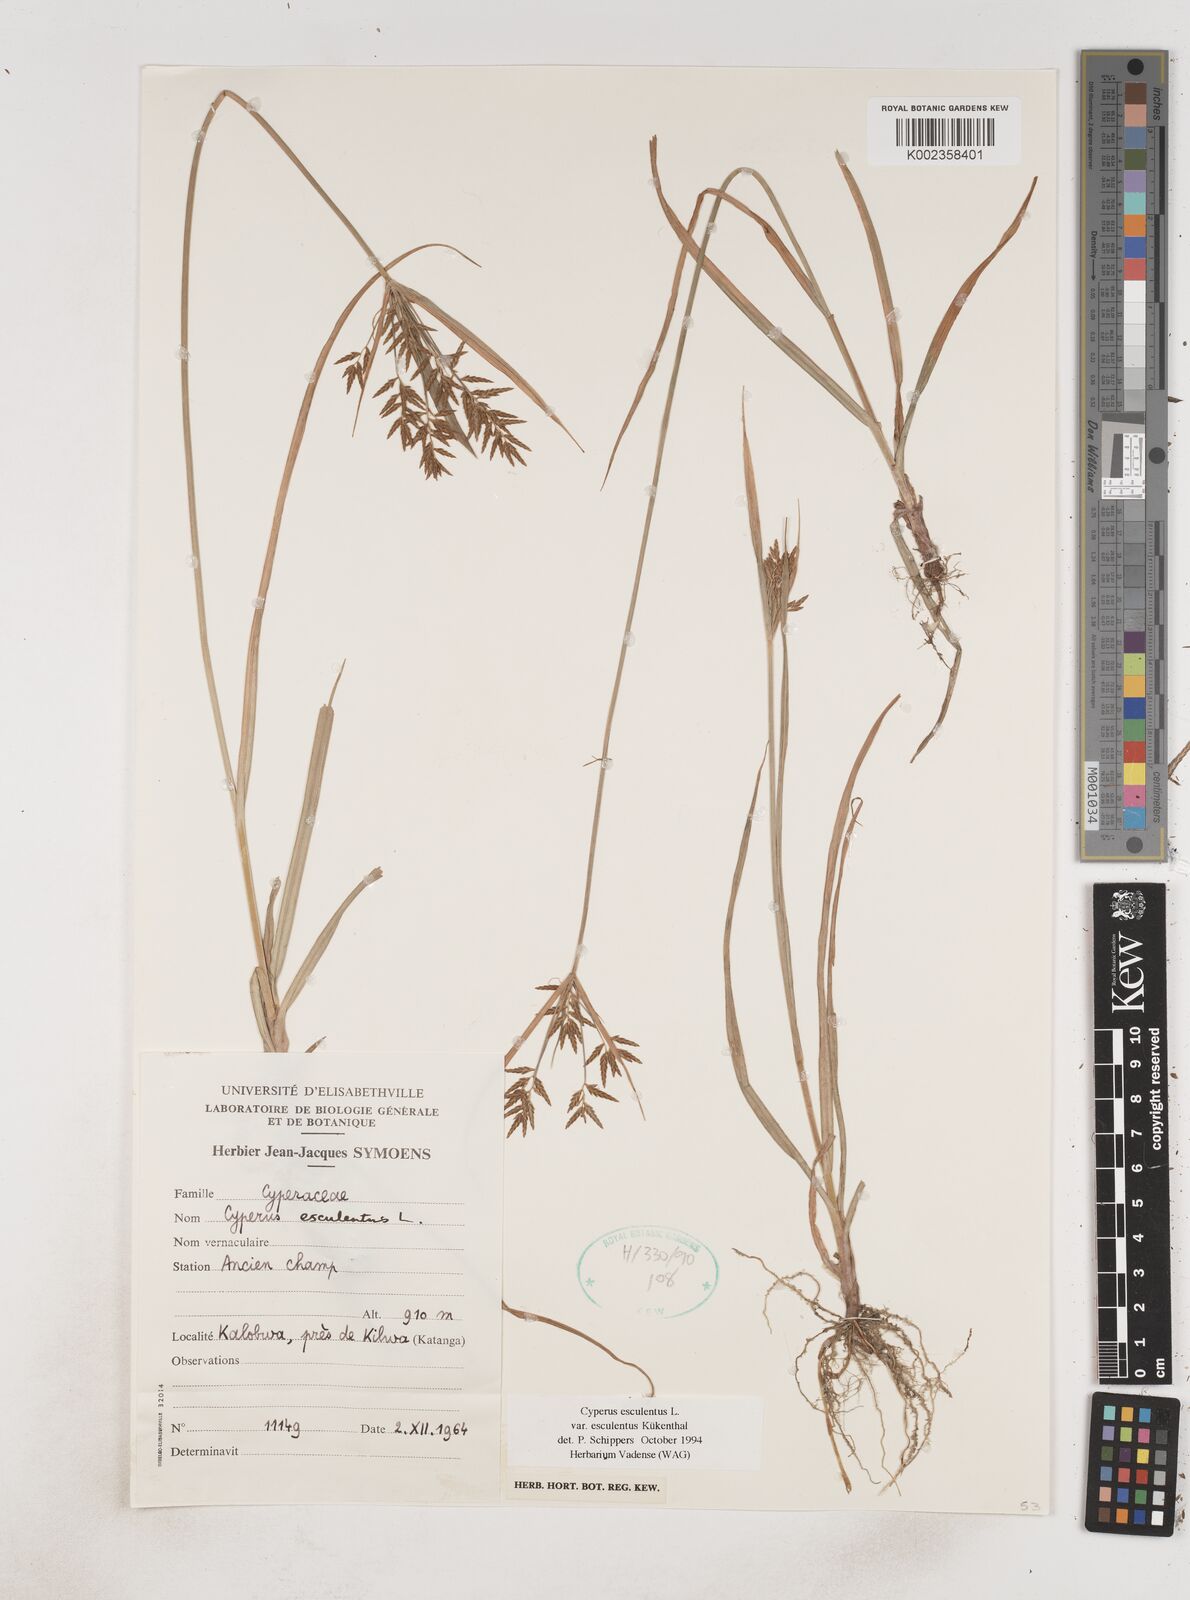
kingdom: Plantae
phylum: Tracheophyta
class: Liliopsida
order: Poales
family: Cyperaceae
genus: Cyperus
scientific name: Cyperus esculentus
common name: Yellow nutsedge
